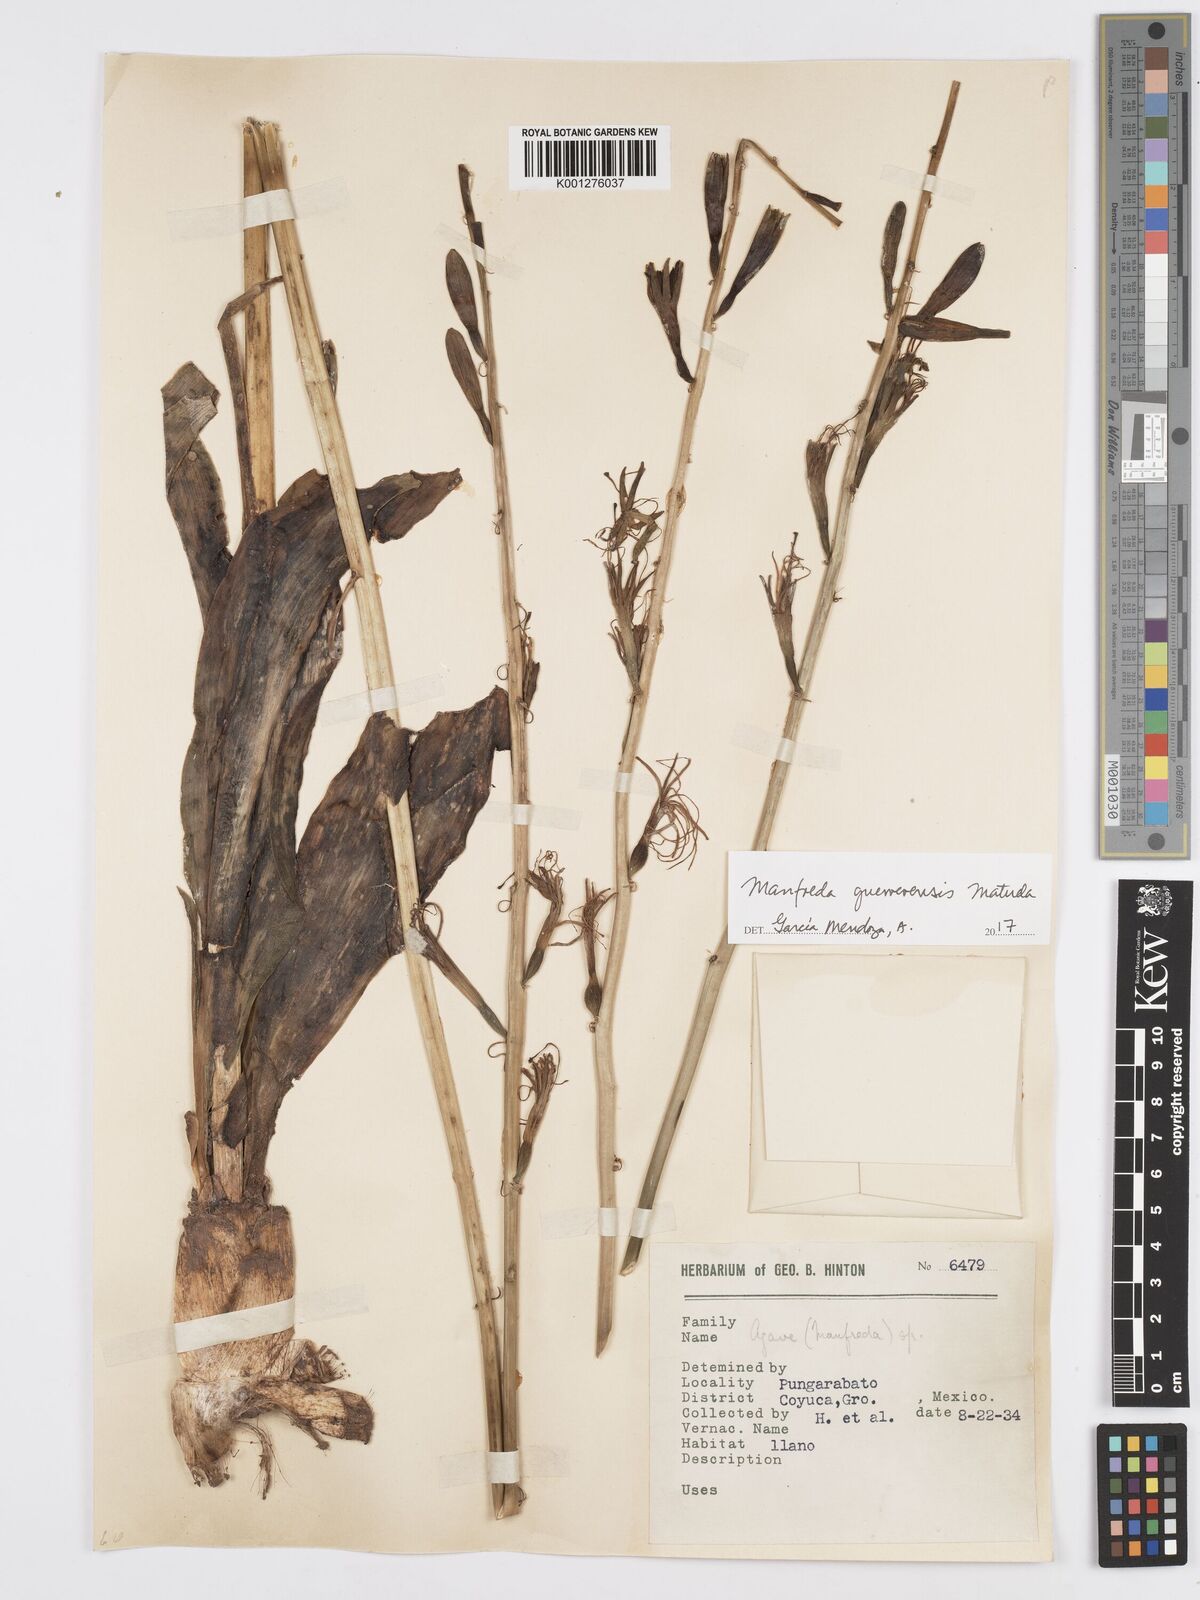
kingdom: Plantae
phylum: Tracheophyta
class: Liliopsida
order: Asparagales
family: Asparagaceae
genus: Agave
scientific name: Agave guerrerensis
